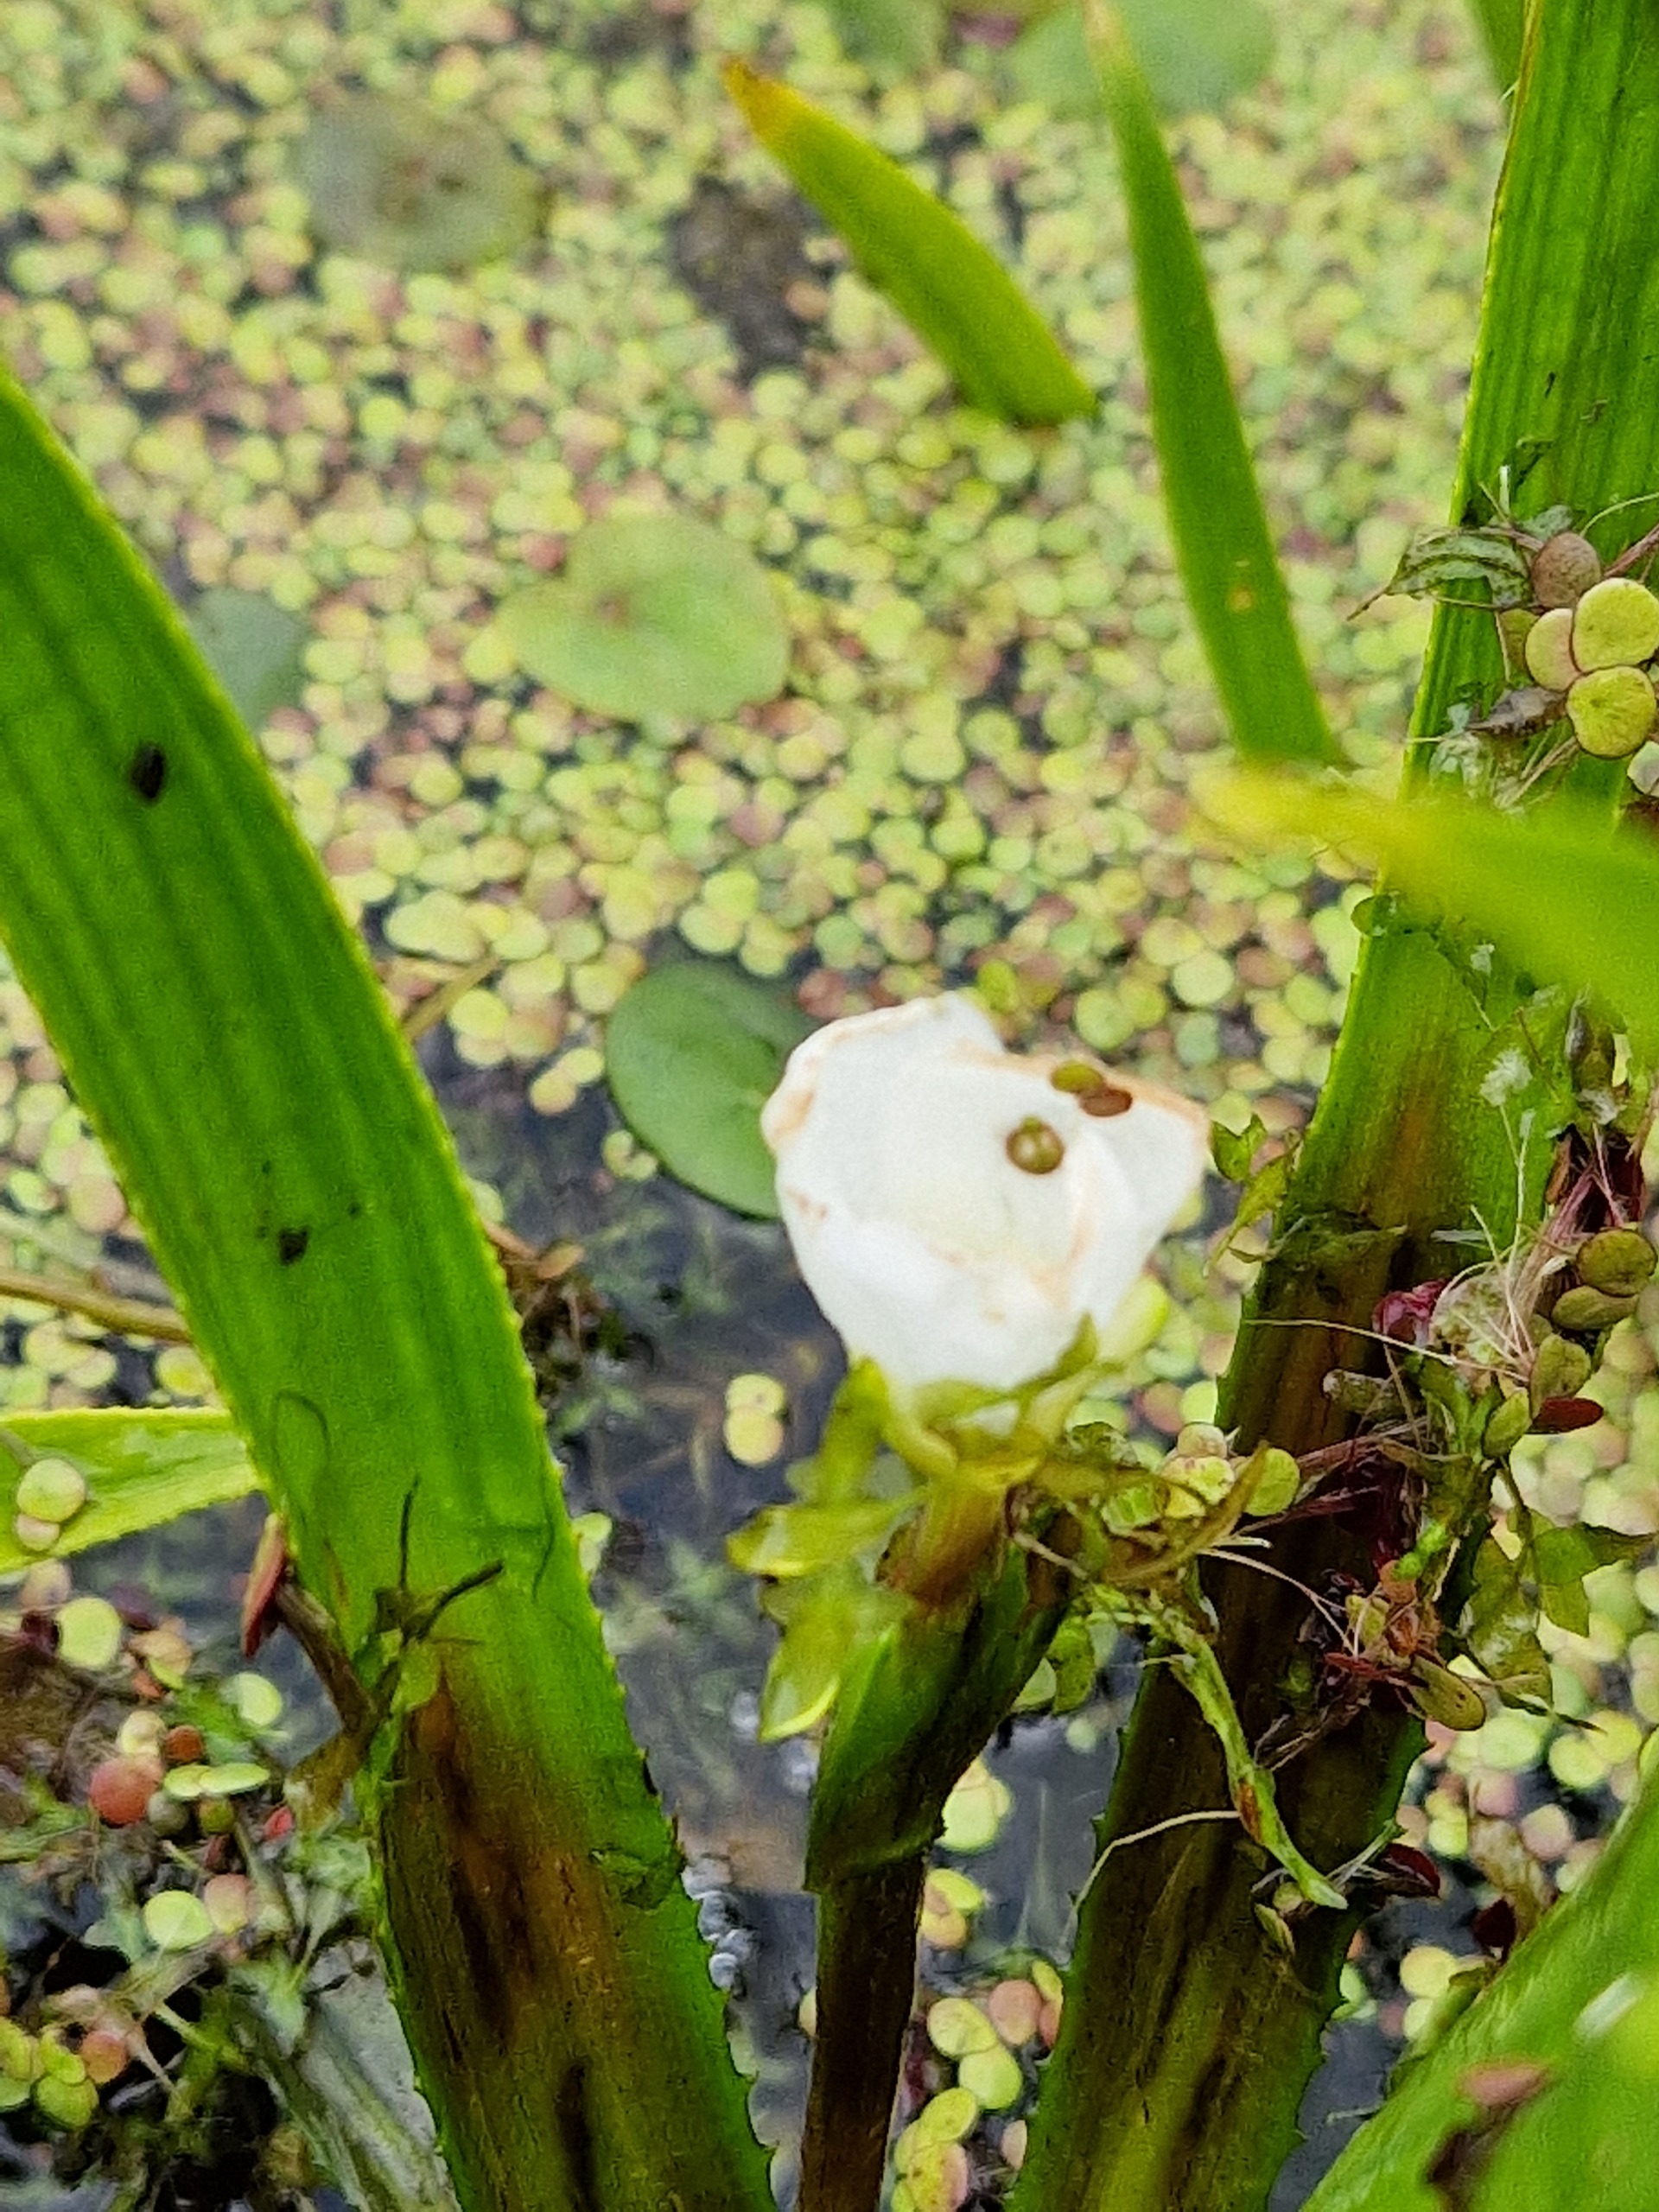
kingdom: Plantae
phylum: Tracheophyta
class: Liliopsida
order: Alismatales
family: Hydrocharitaceae
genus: Stratiotes
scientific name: Stratiotes aloides
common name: Krebseklo
